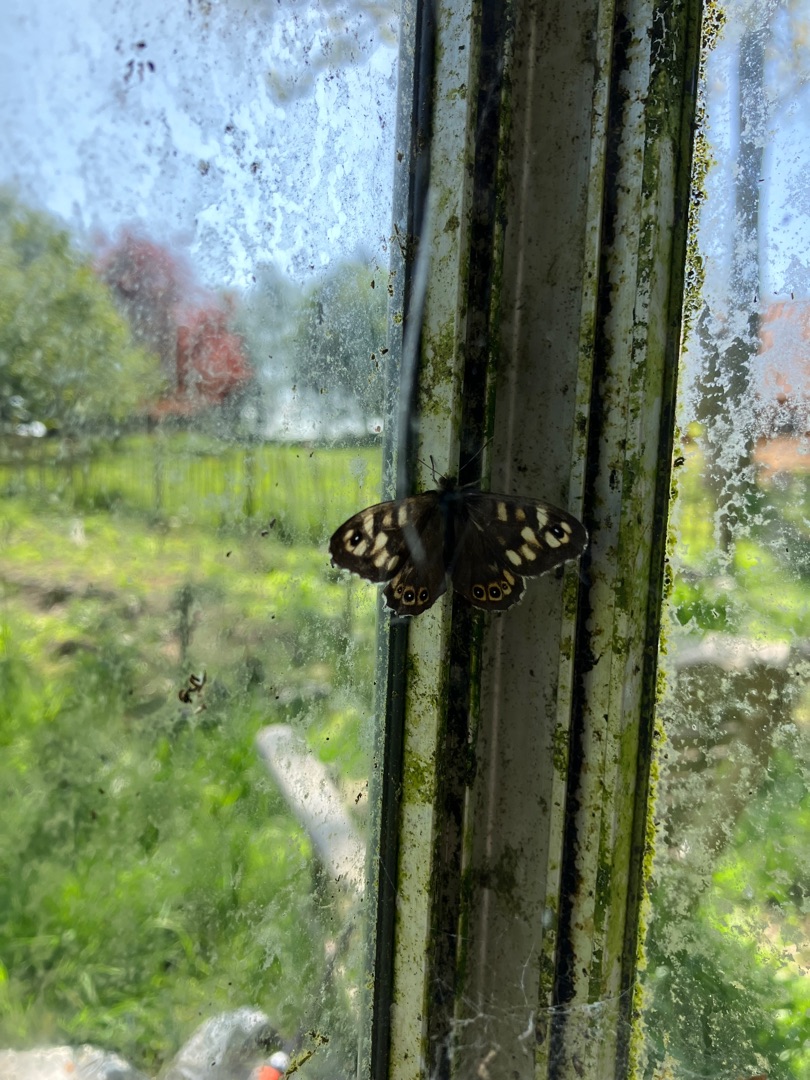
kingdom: Animalia
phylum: Arthropoda
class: Insecta
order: Lepidoptera
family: Nymphalidae
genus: Pararge
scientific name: Pararge aegeria
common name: Skovrandøje
